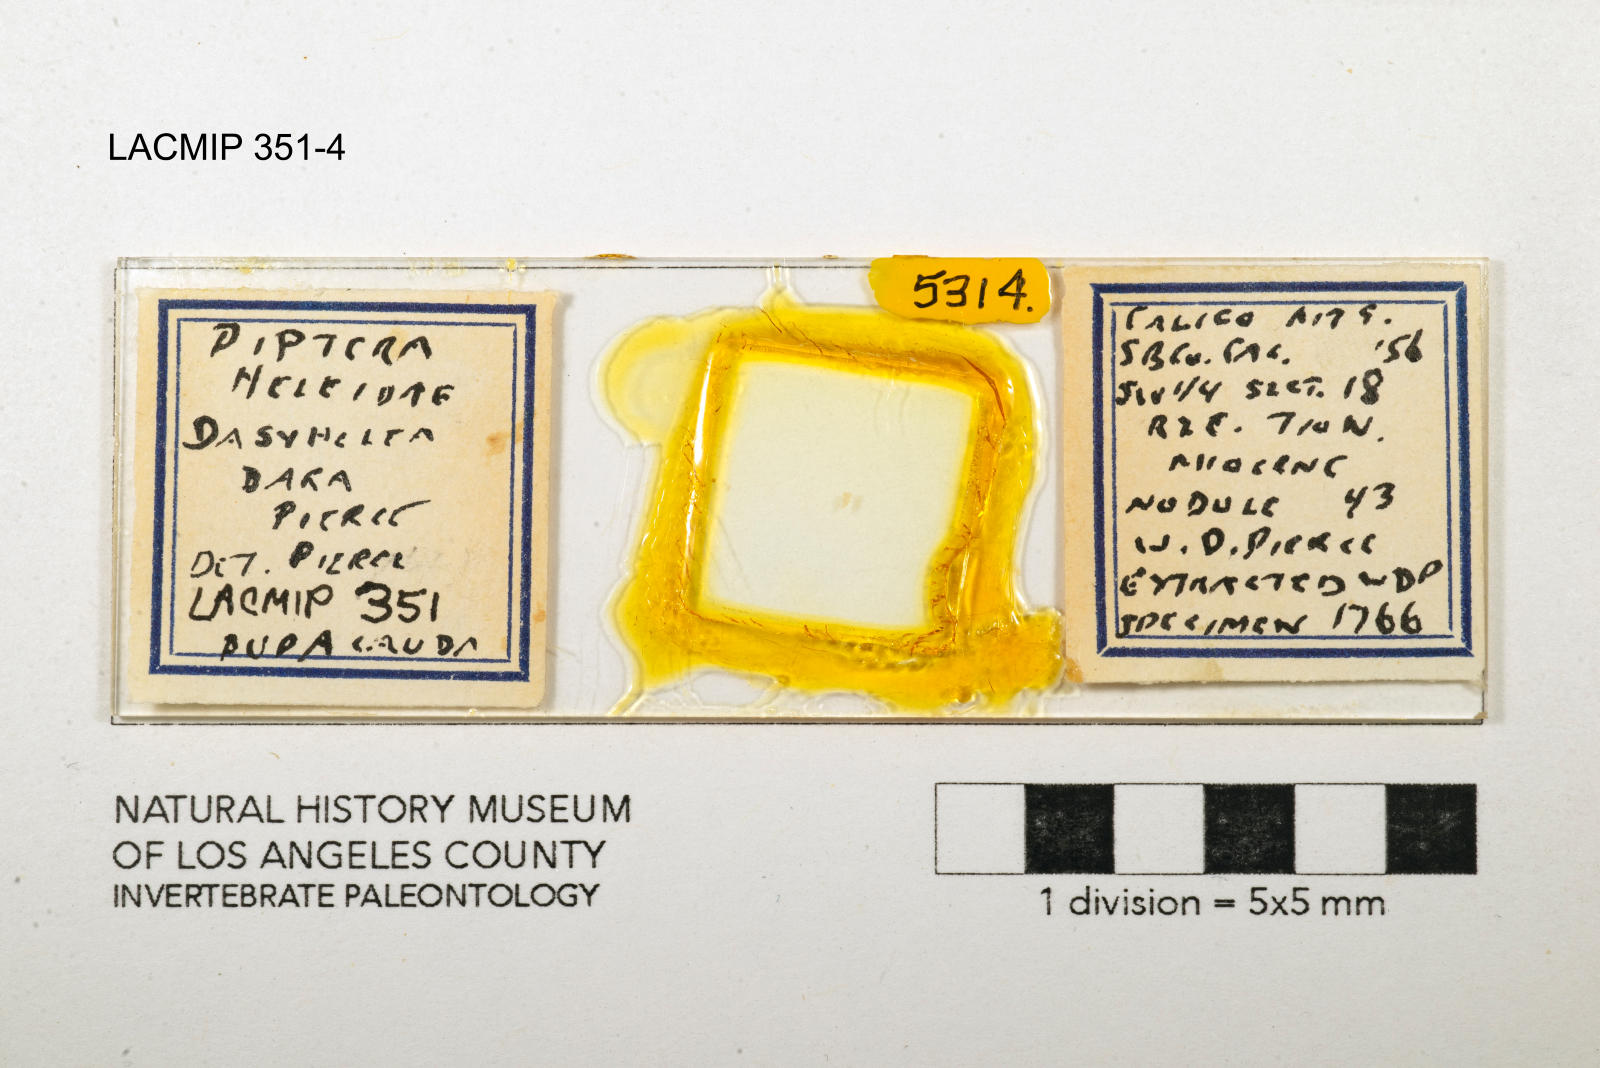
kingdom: Animalia
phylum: Arthropoda
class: Insecta
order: Diptera
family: Ceratopogonidae
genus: Dasyhelea
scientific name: Dasyhelea dara
